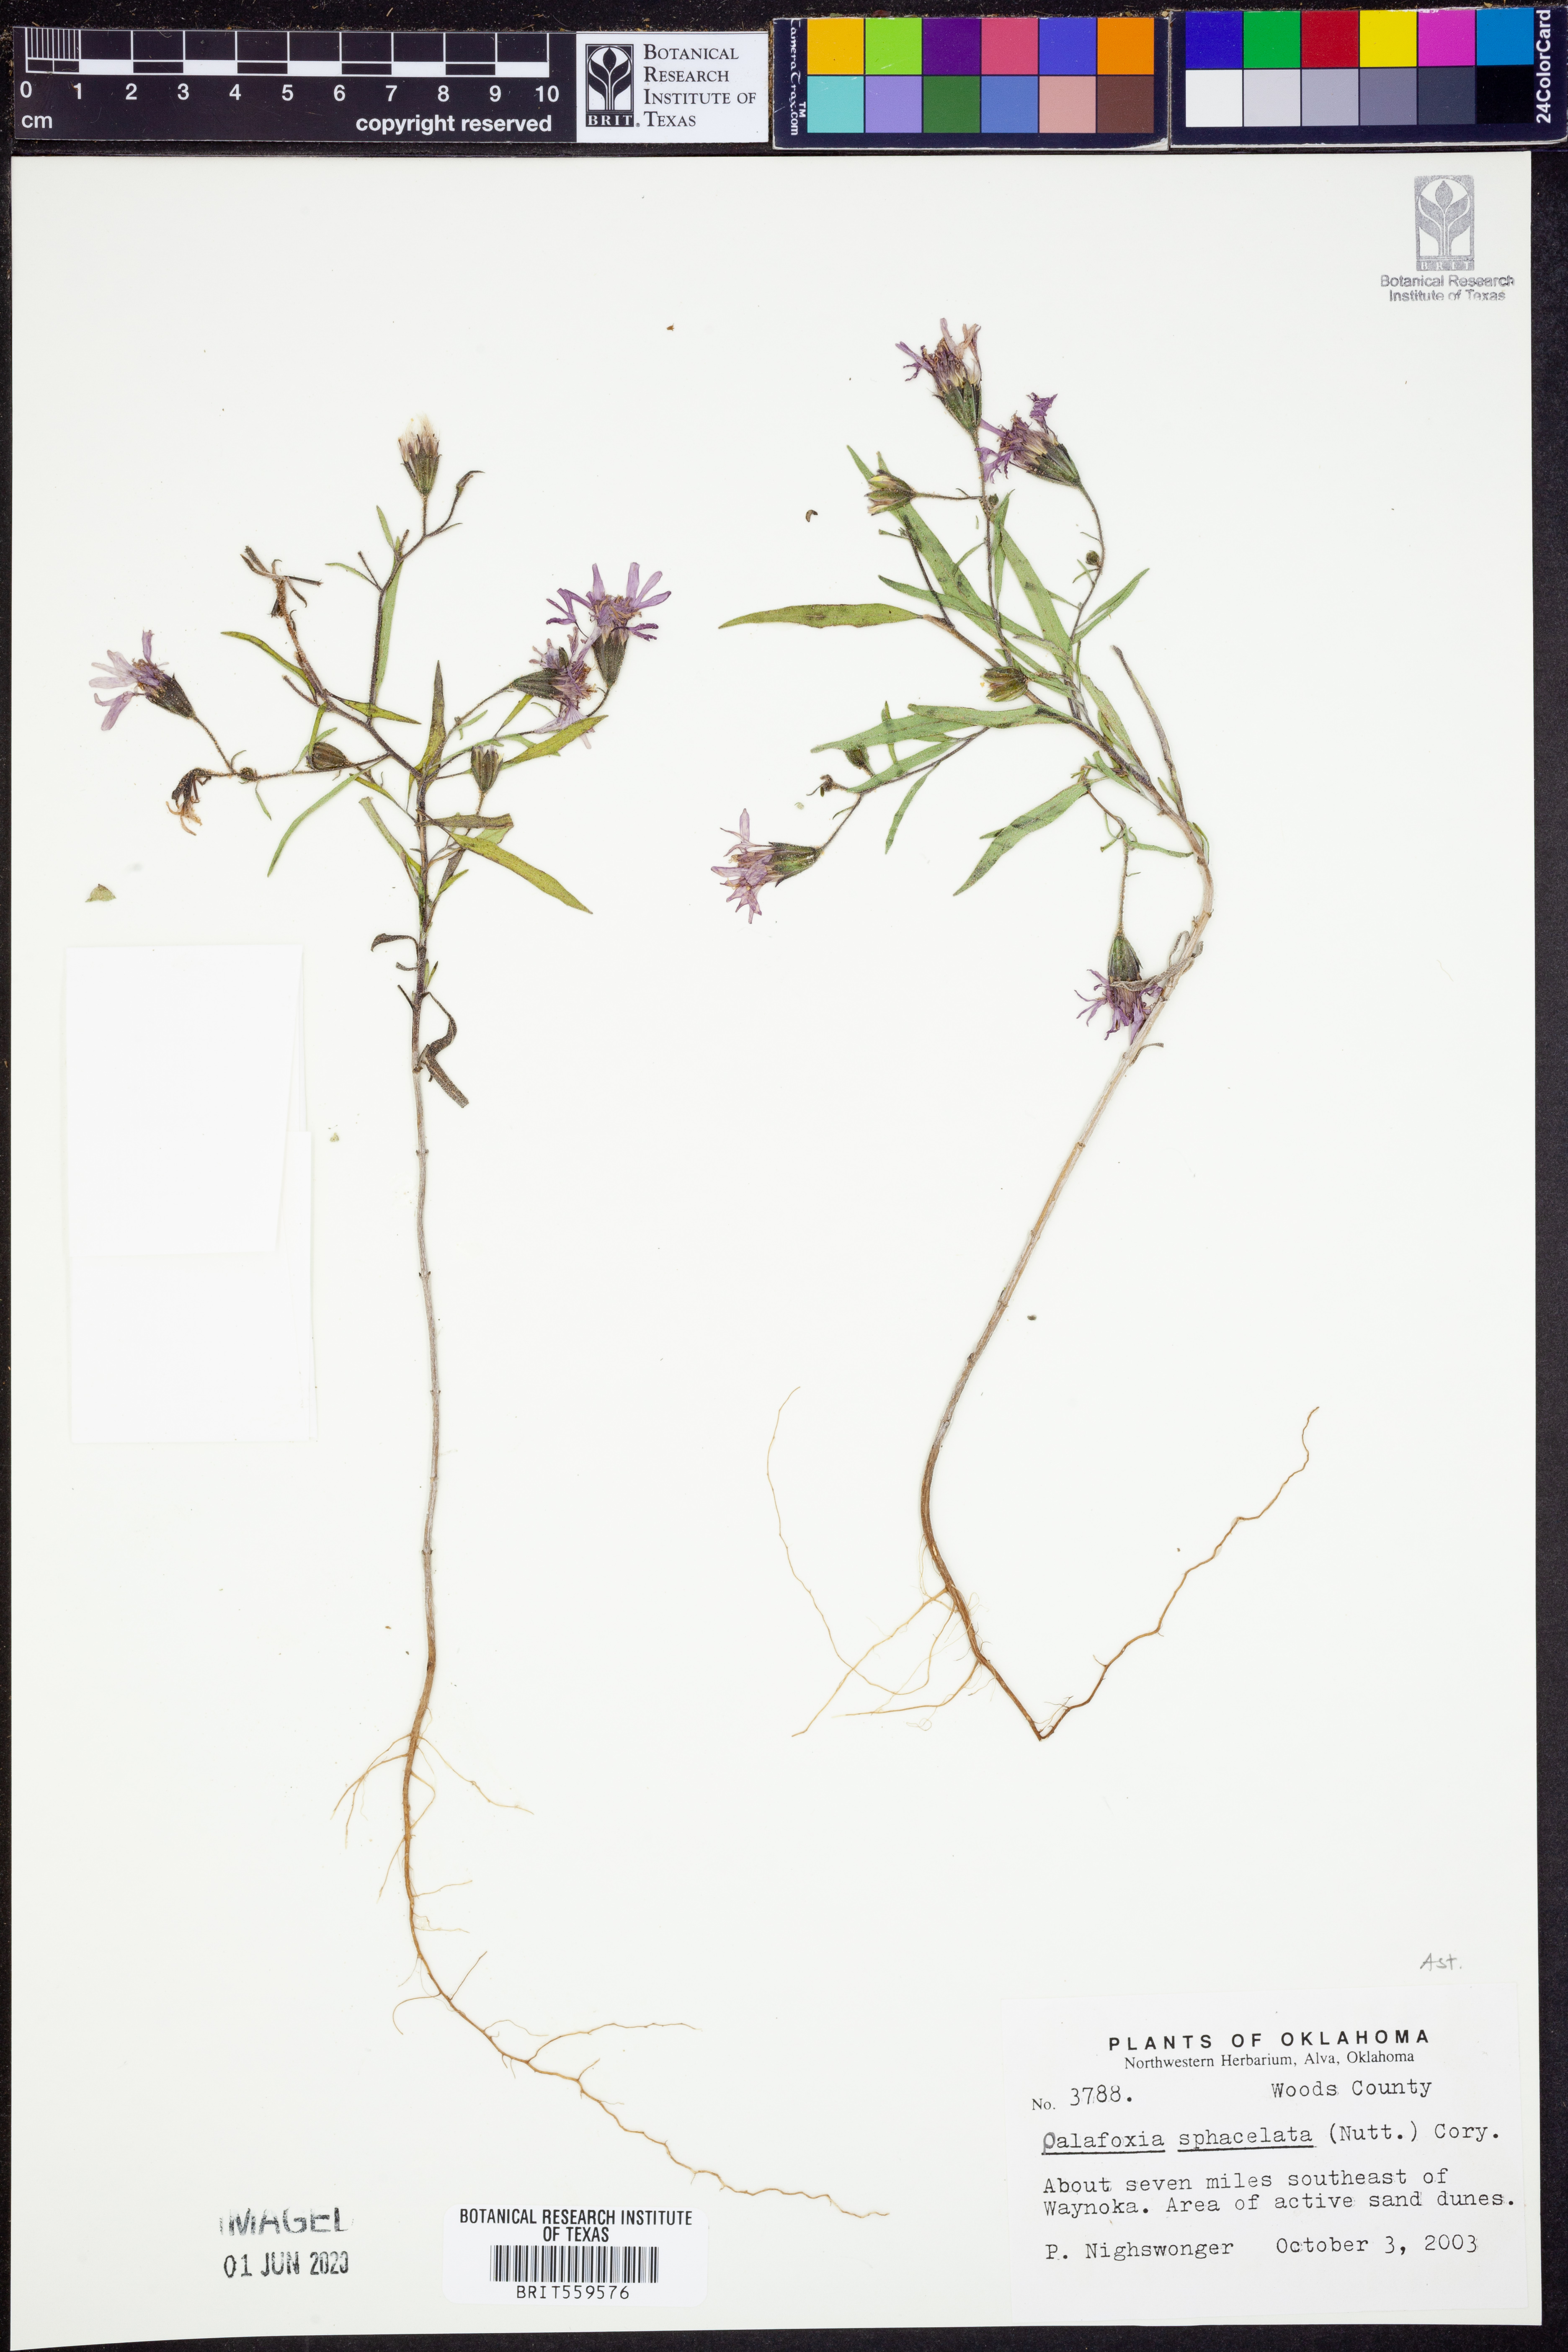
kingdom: Plantae
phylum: Tracheophyta
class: Magnoliopsida
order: Asterales
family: Asteraceae
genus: Palafoxia
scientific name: Palafoxia sphacelata
